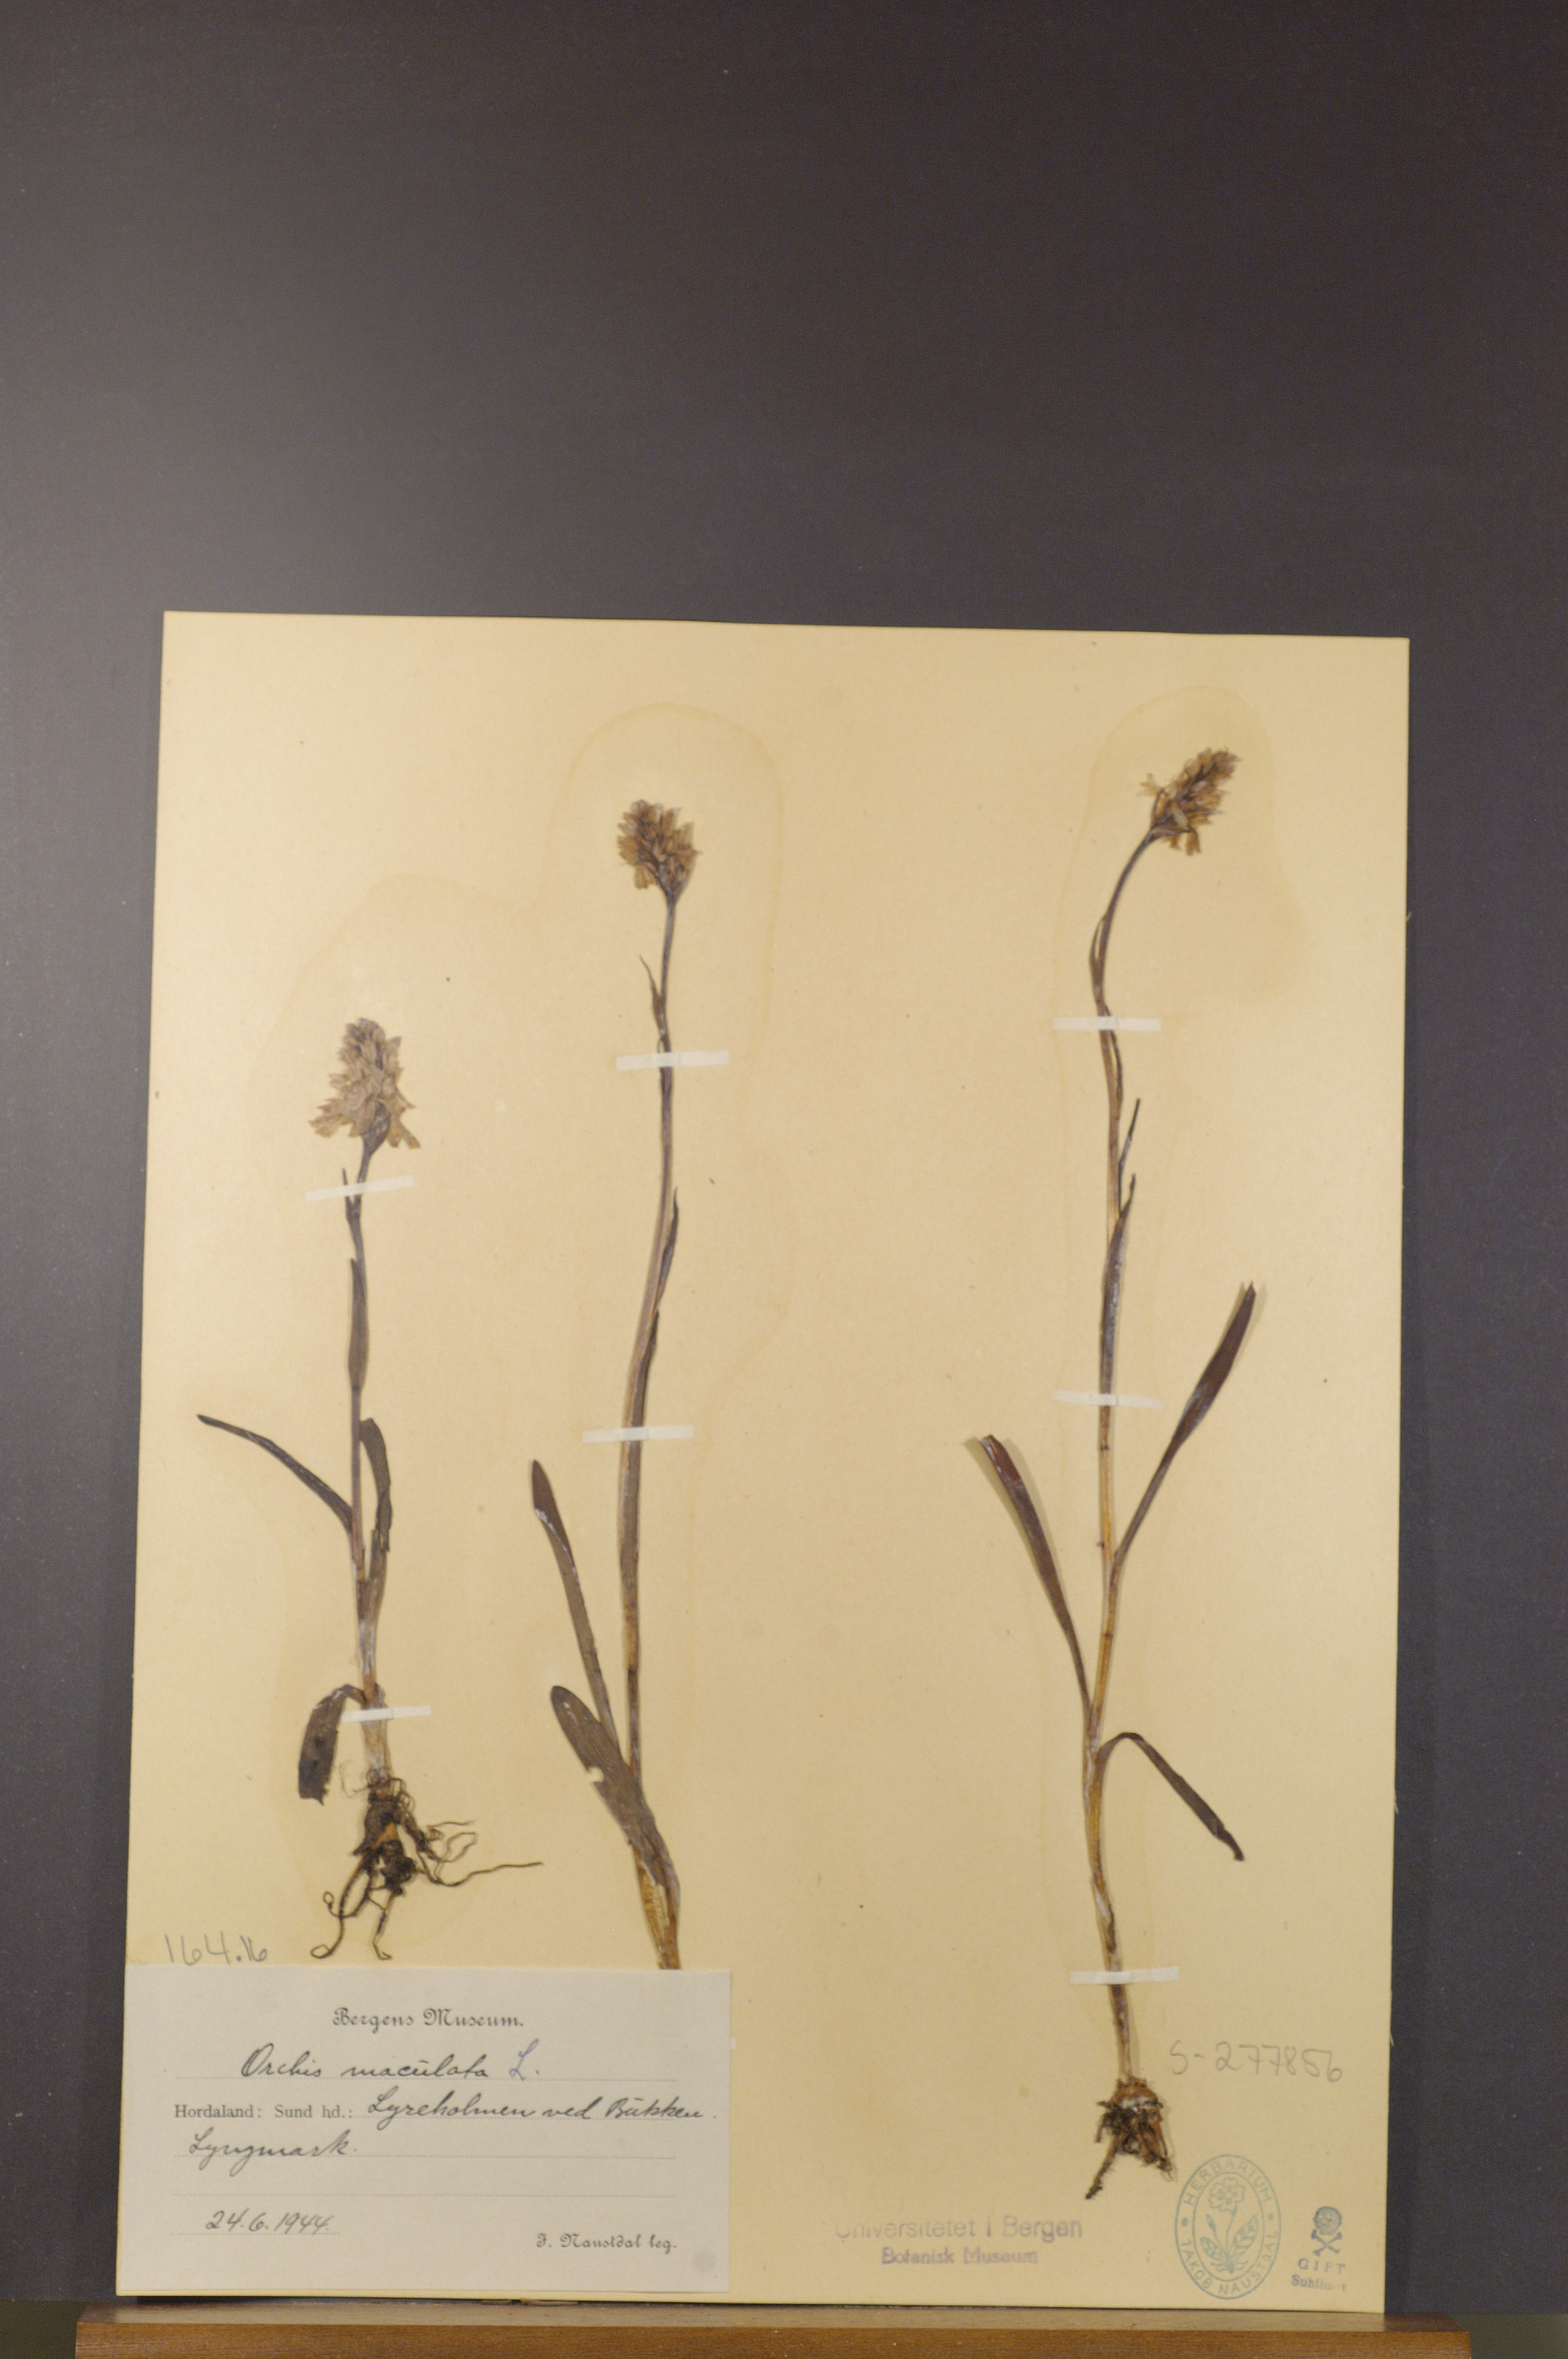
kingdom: Plantae
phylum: Tracheophyta
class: Liliopsida
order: Asparagales
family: Orchidaceae
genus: Dactylorhiza
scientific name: Dactylorhiza maculata
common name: Heath spotted-orchid
